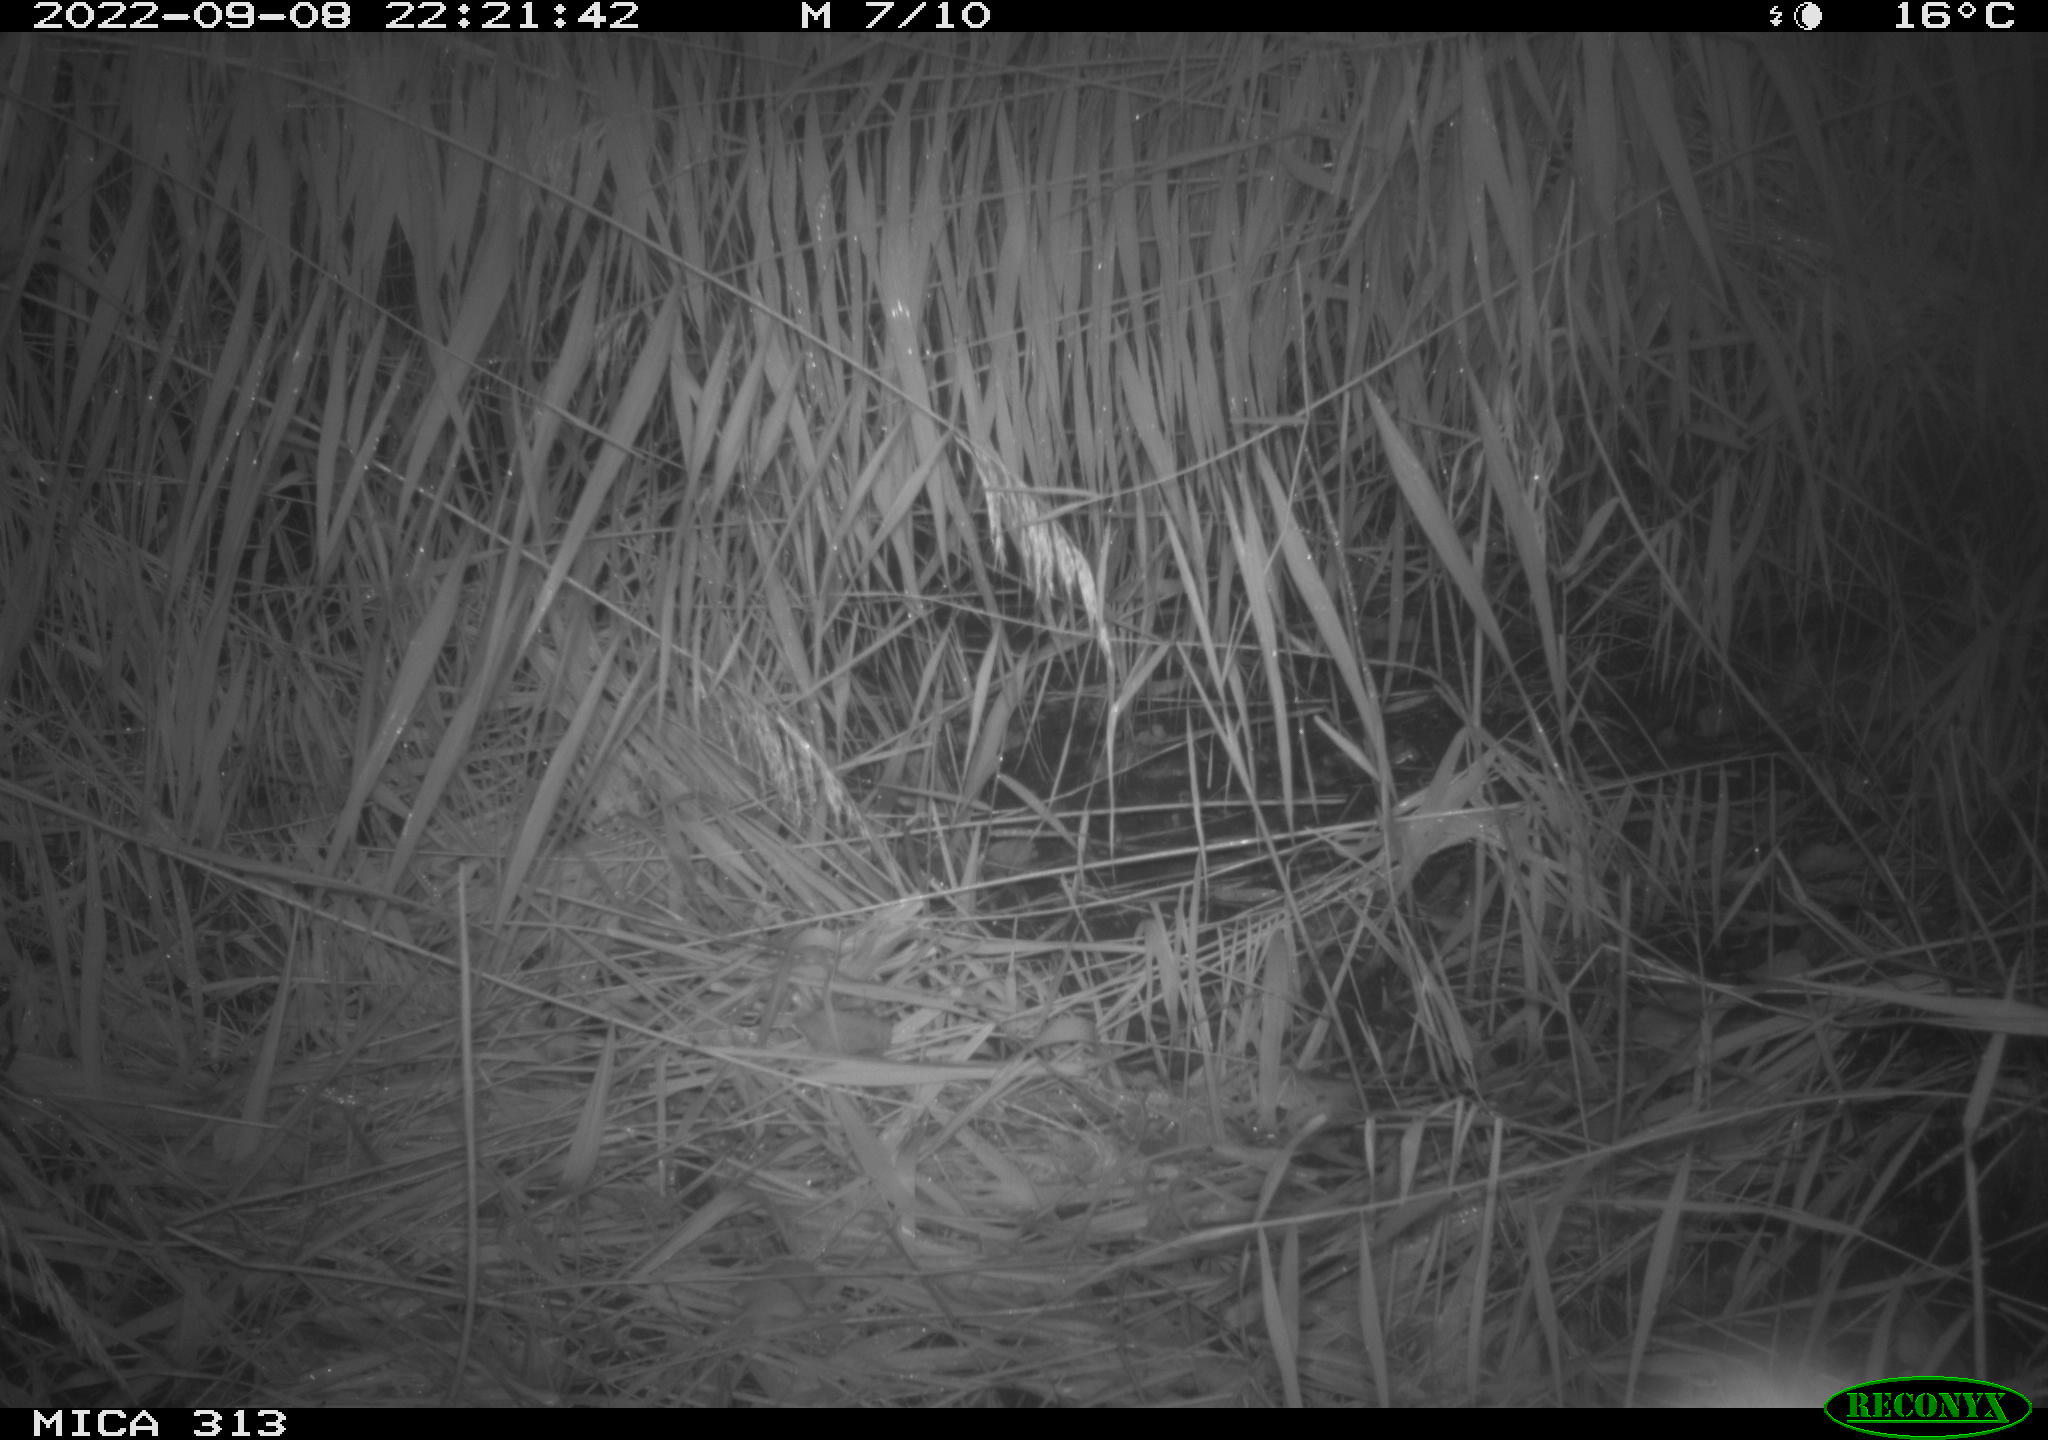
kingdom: Animalia
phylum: Chordata
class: Mammalia
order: Rodentia
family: Muridae
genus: Rattus
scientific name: Rattus norvegicus
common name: Brown rat
